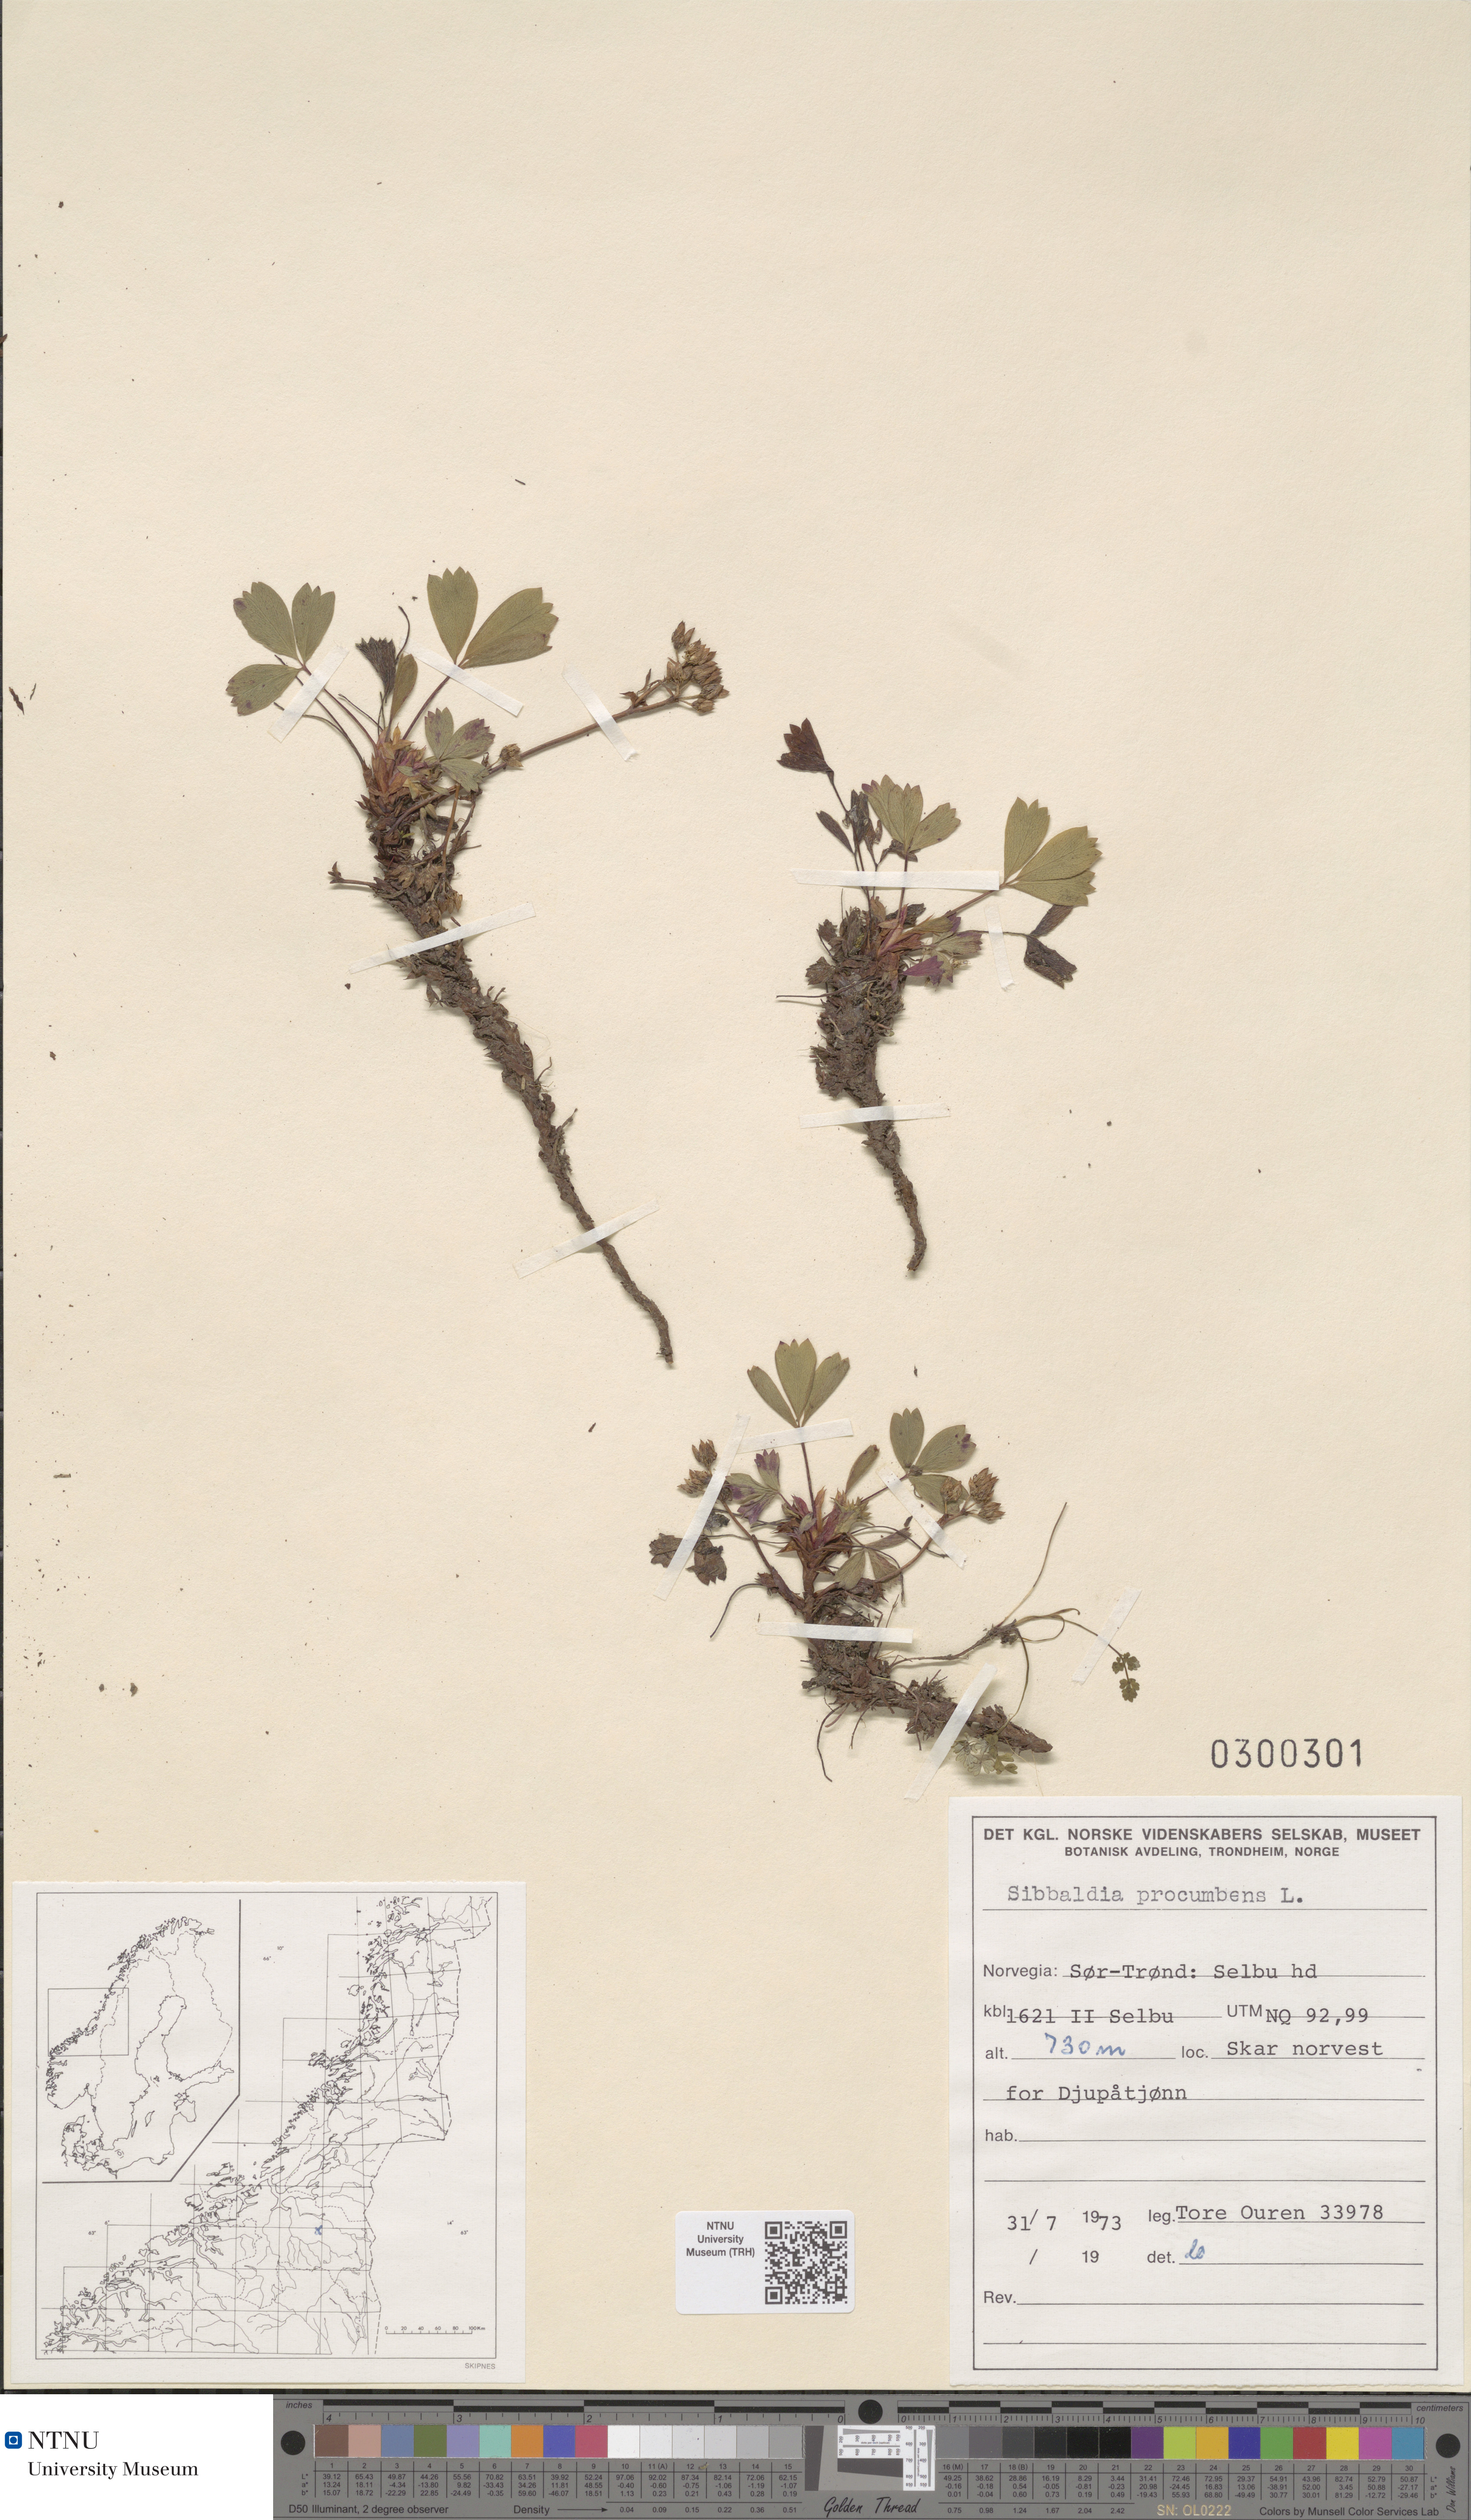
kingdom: Plantae
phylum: Tracheophyta
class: Magnoliopsida
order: Rosales
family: Rosaceae
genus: Sibbaldia
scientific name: Sibbaldia procumbens
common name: Creeping sibbaldia
